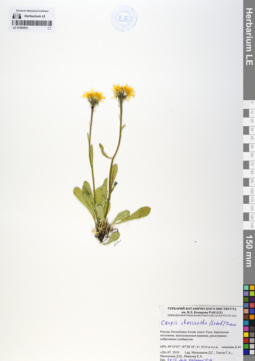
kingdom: Plantae
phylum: Tracheophyta
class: Magnoliopsida
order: Asterales
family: Asteraceae
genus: Crepis
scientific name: Crepis chrysantha
